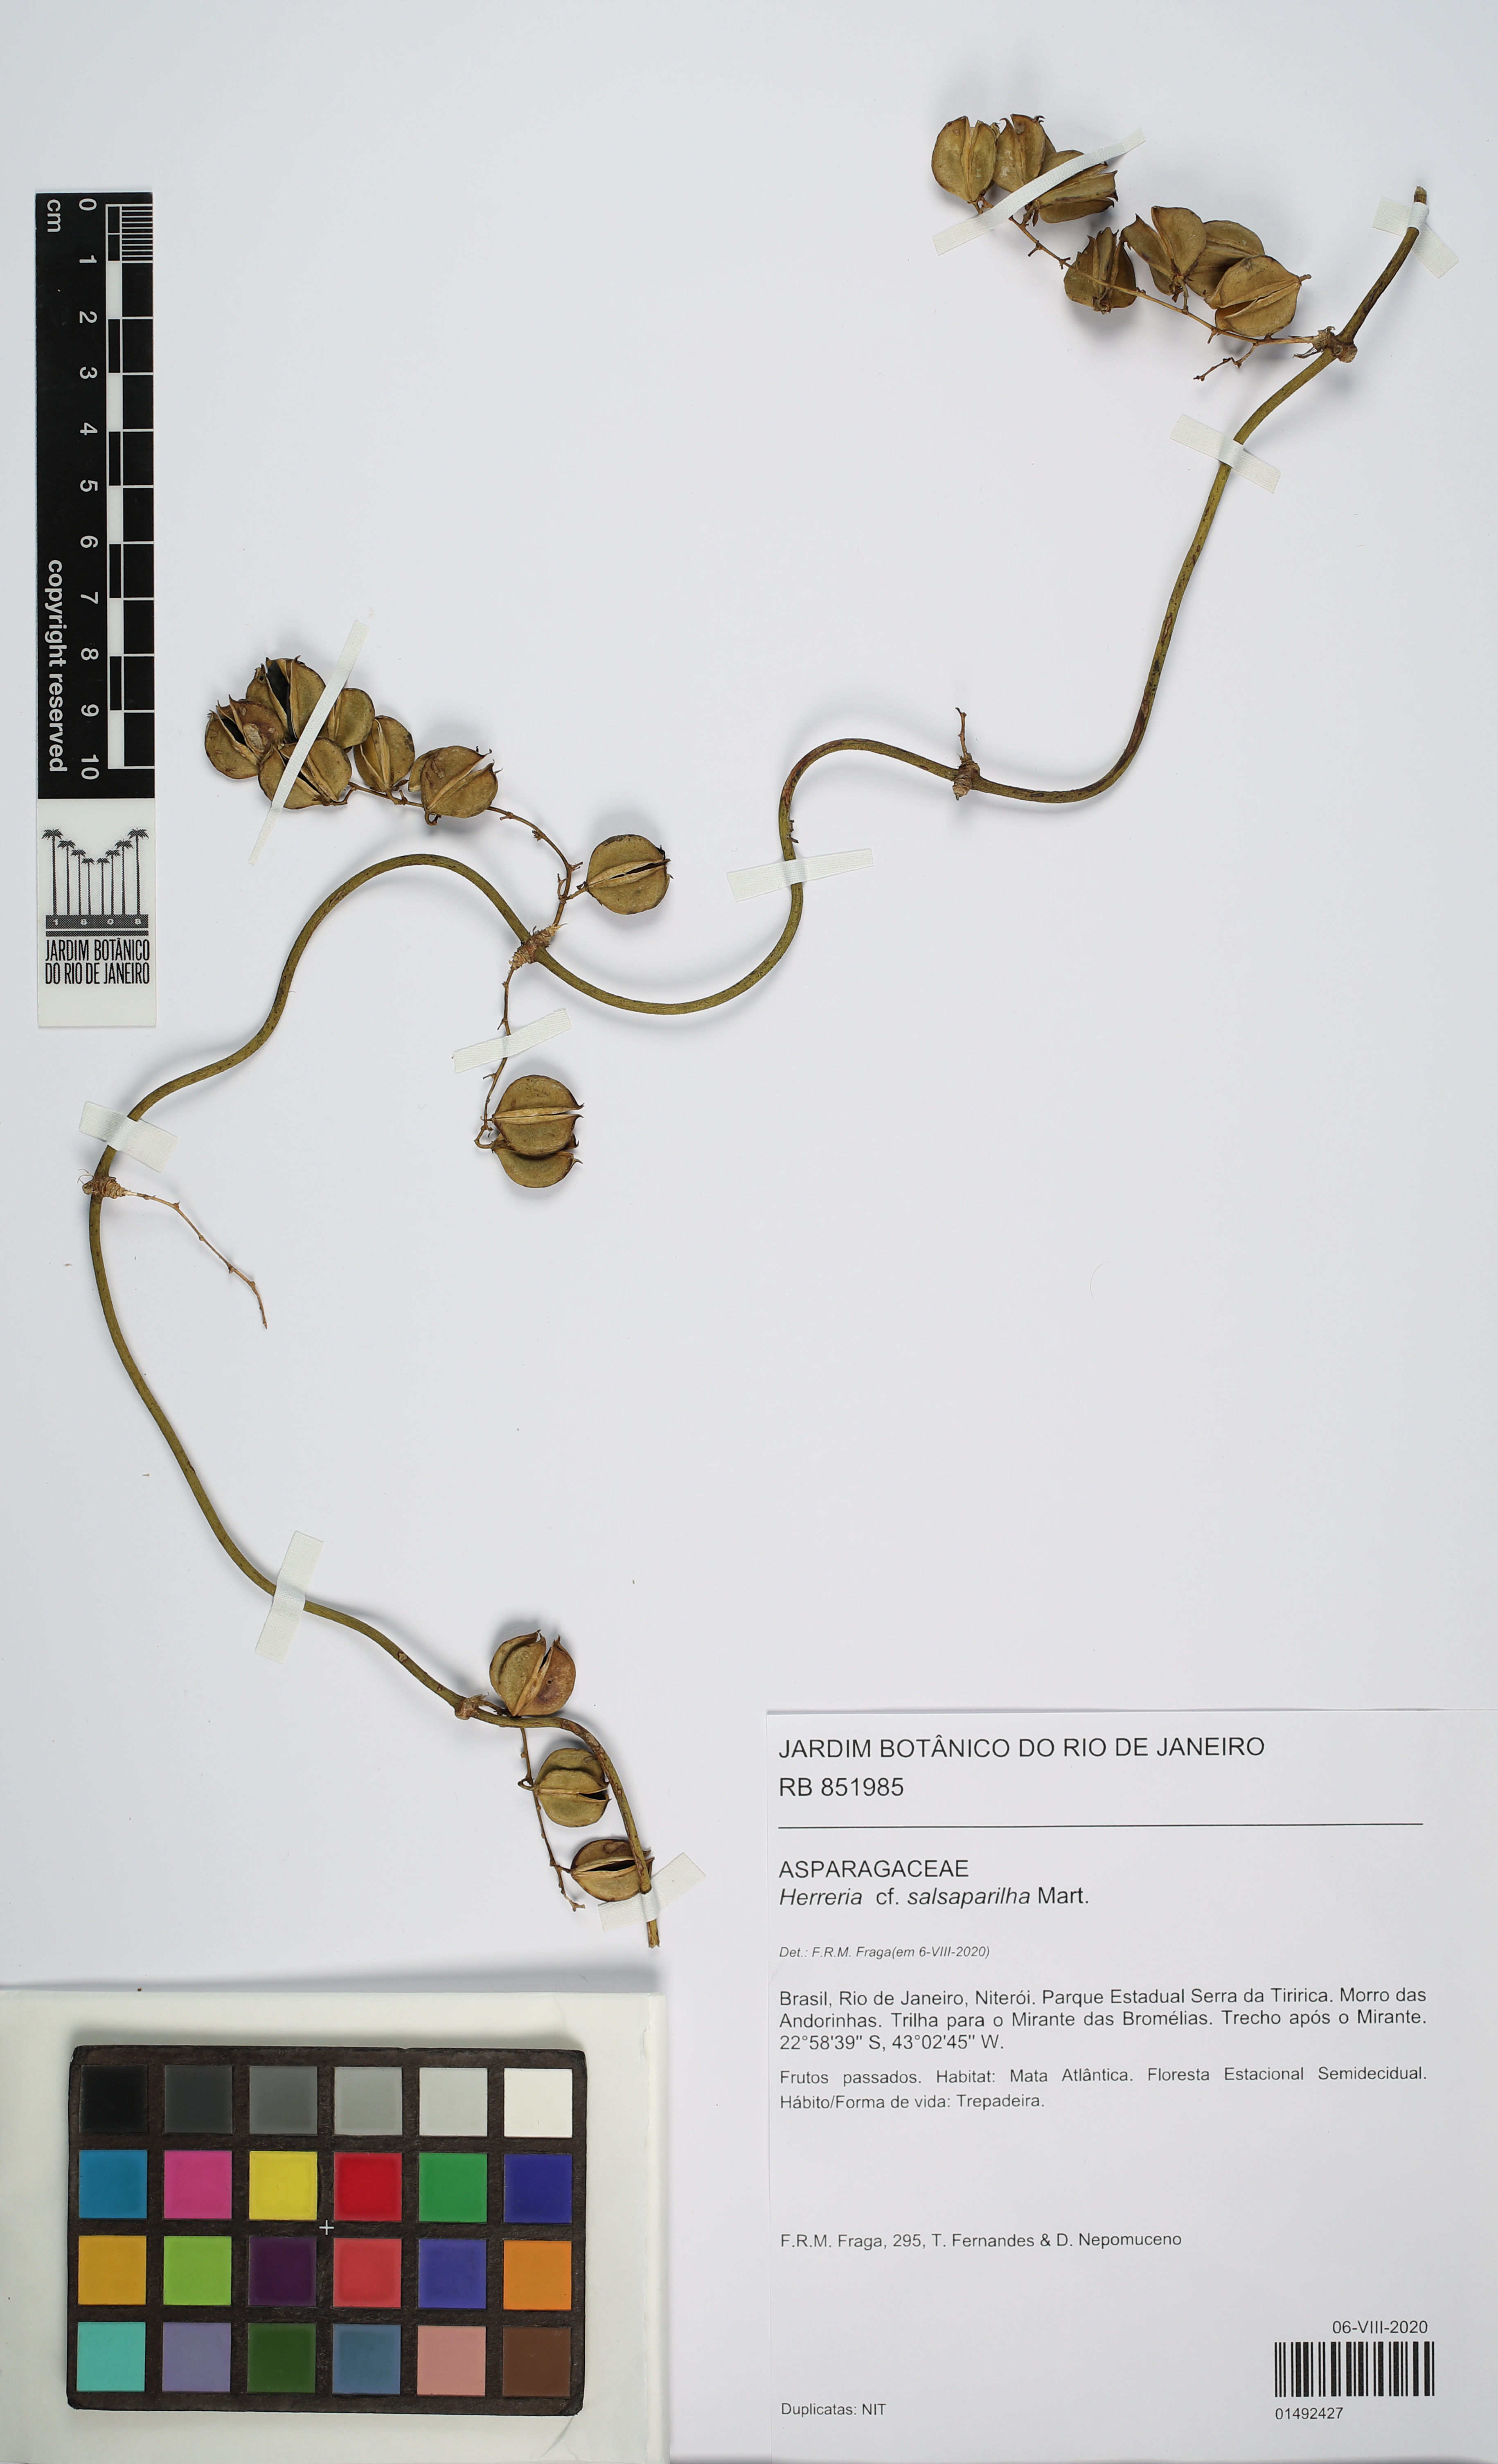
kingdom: Plantae
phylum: Tracheophyta
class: Liliopsida
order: Asparagales
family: Asparagaceae
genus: Herreria
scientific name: Herreria salsaparilha
